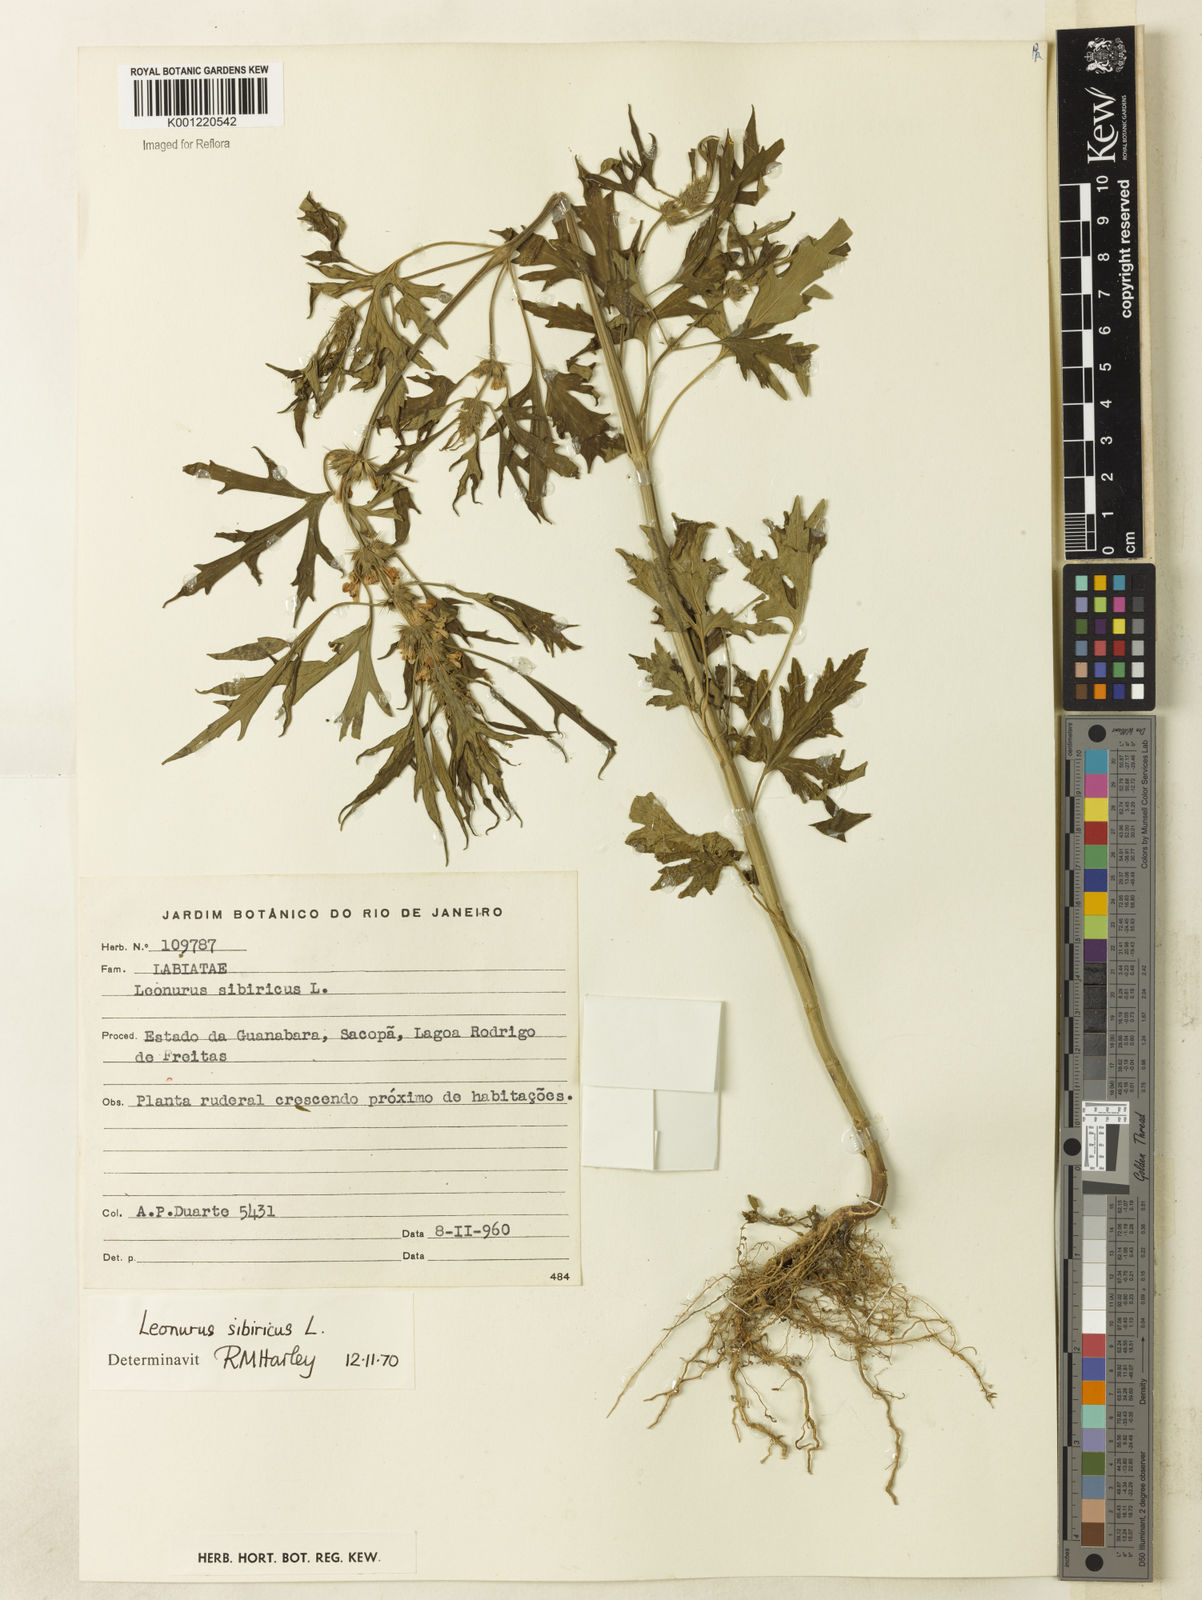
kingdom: Plantae
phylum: Tracheophyta
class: Magnoliopsida
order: Lamiales
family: Lamiaceae
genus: Leonurus
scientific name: Leonurus japonicus
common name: Honeyweed
